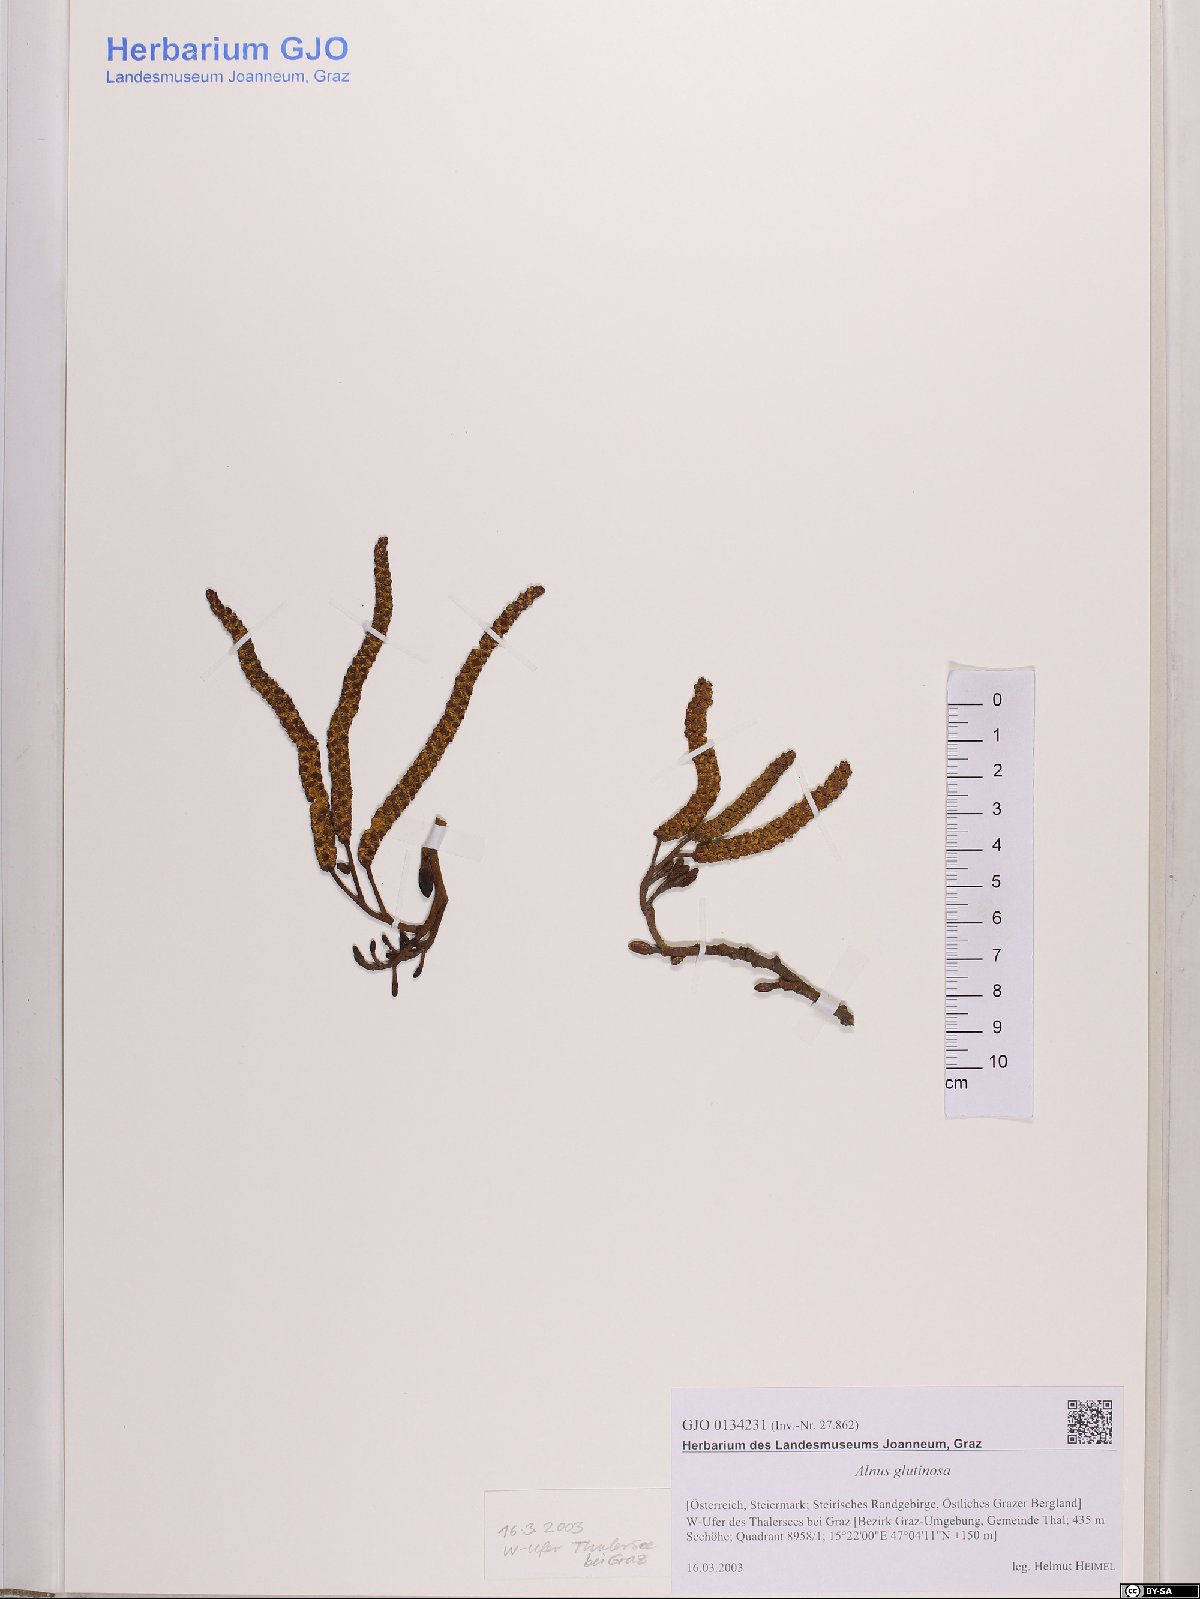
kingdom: Plantae
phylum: Tracheophyta
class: Magnoliopsida
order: Fagales
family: Betulaceae
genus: Alnus
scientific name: Alnus glutinosa
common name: Black alder
